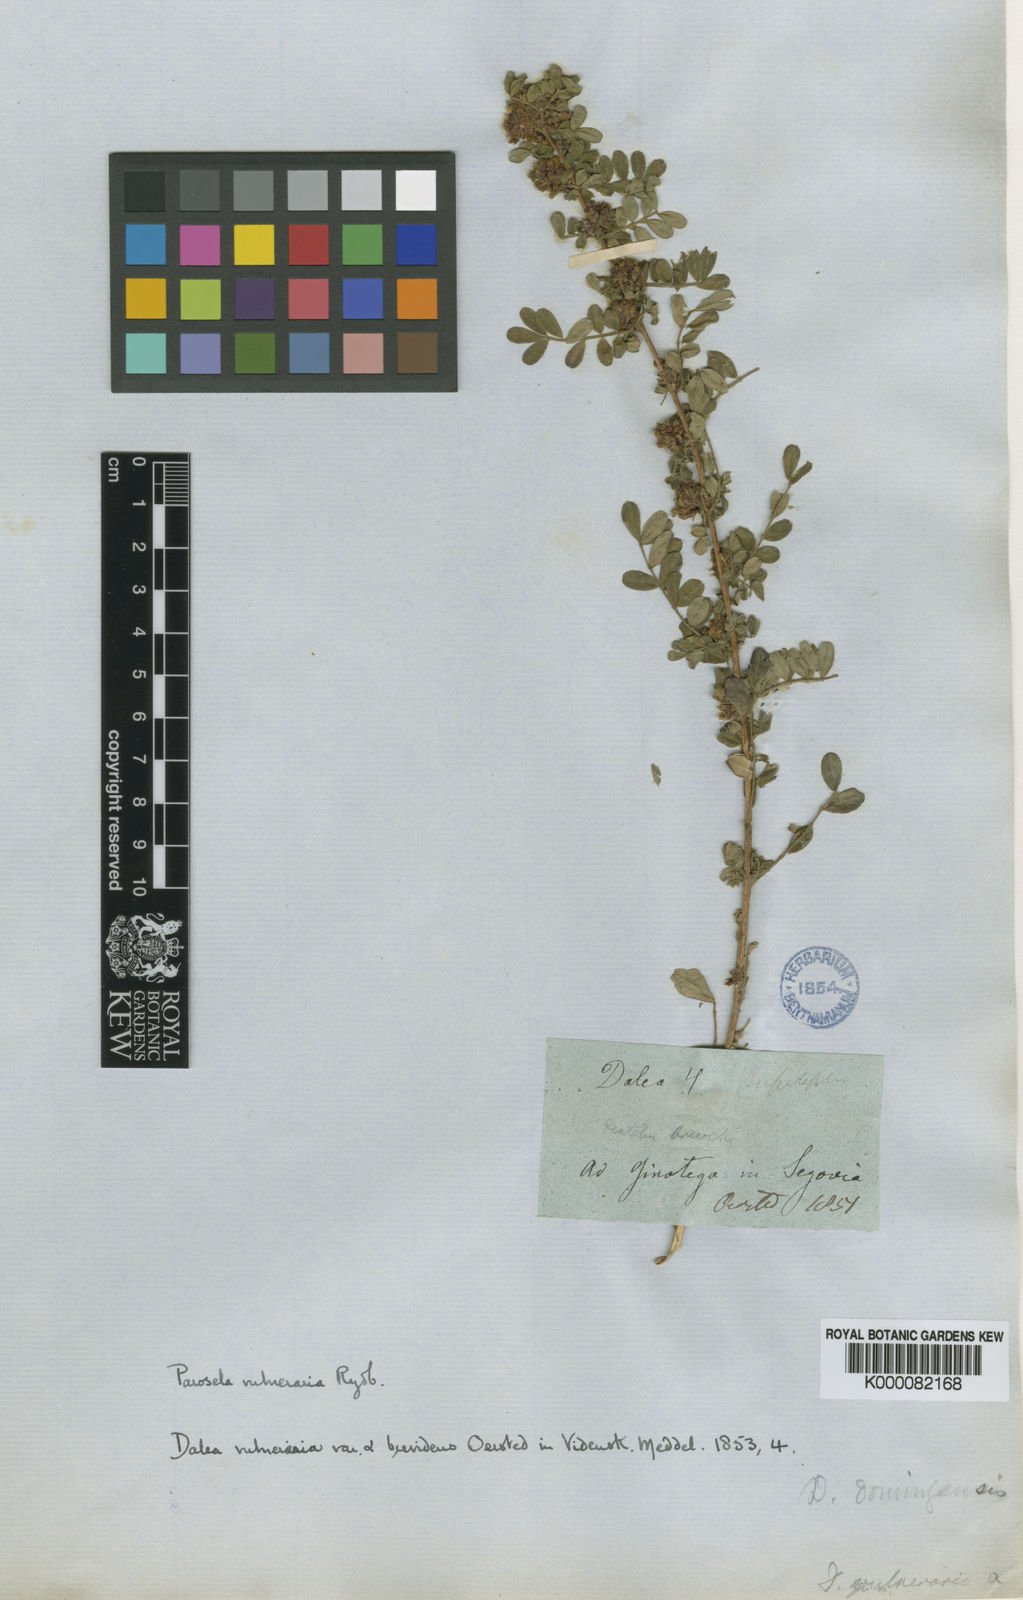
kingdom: Plantae
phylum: Tracheophyta
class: Magnoliopsida
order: Fabales
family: Fabaceae
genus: Dalea
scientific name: Dalea scandens
